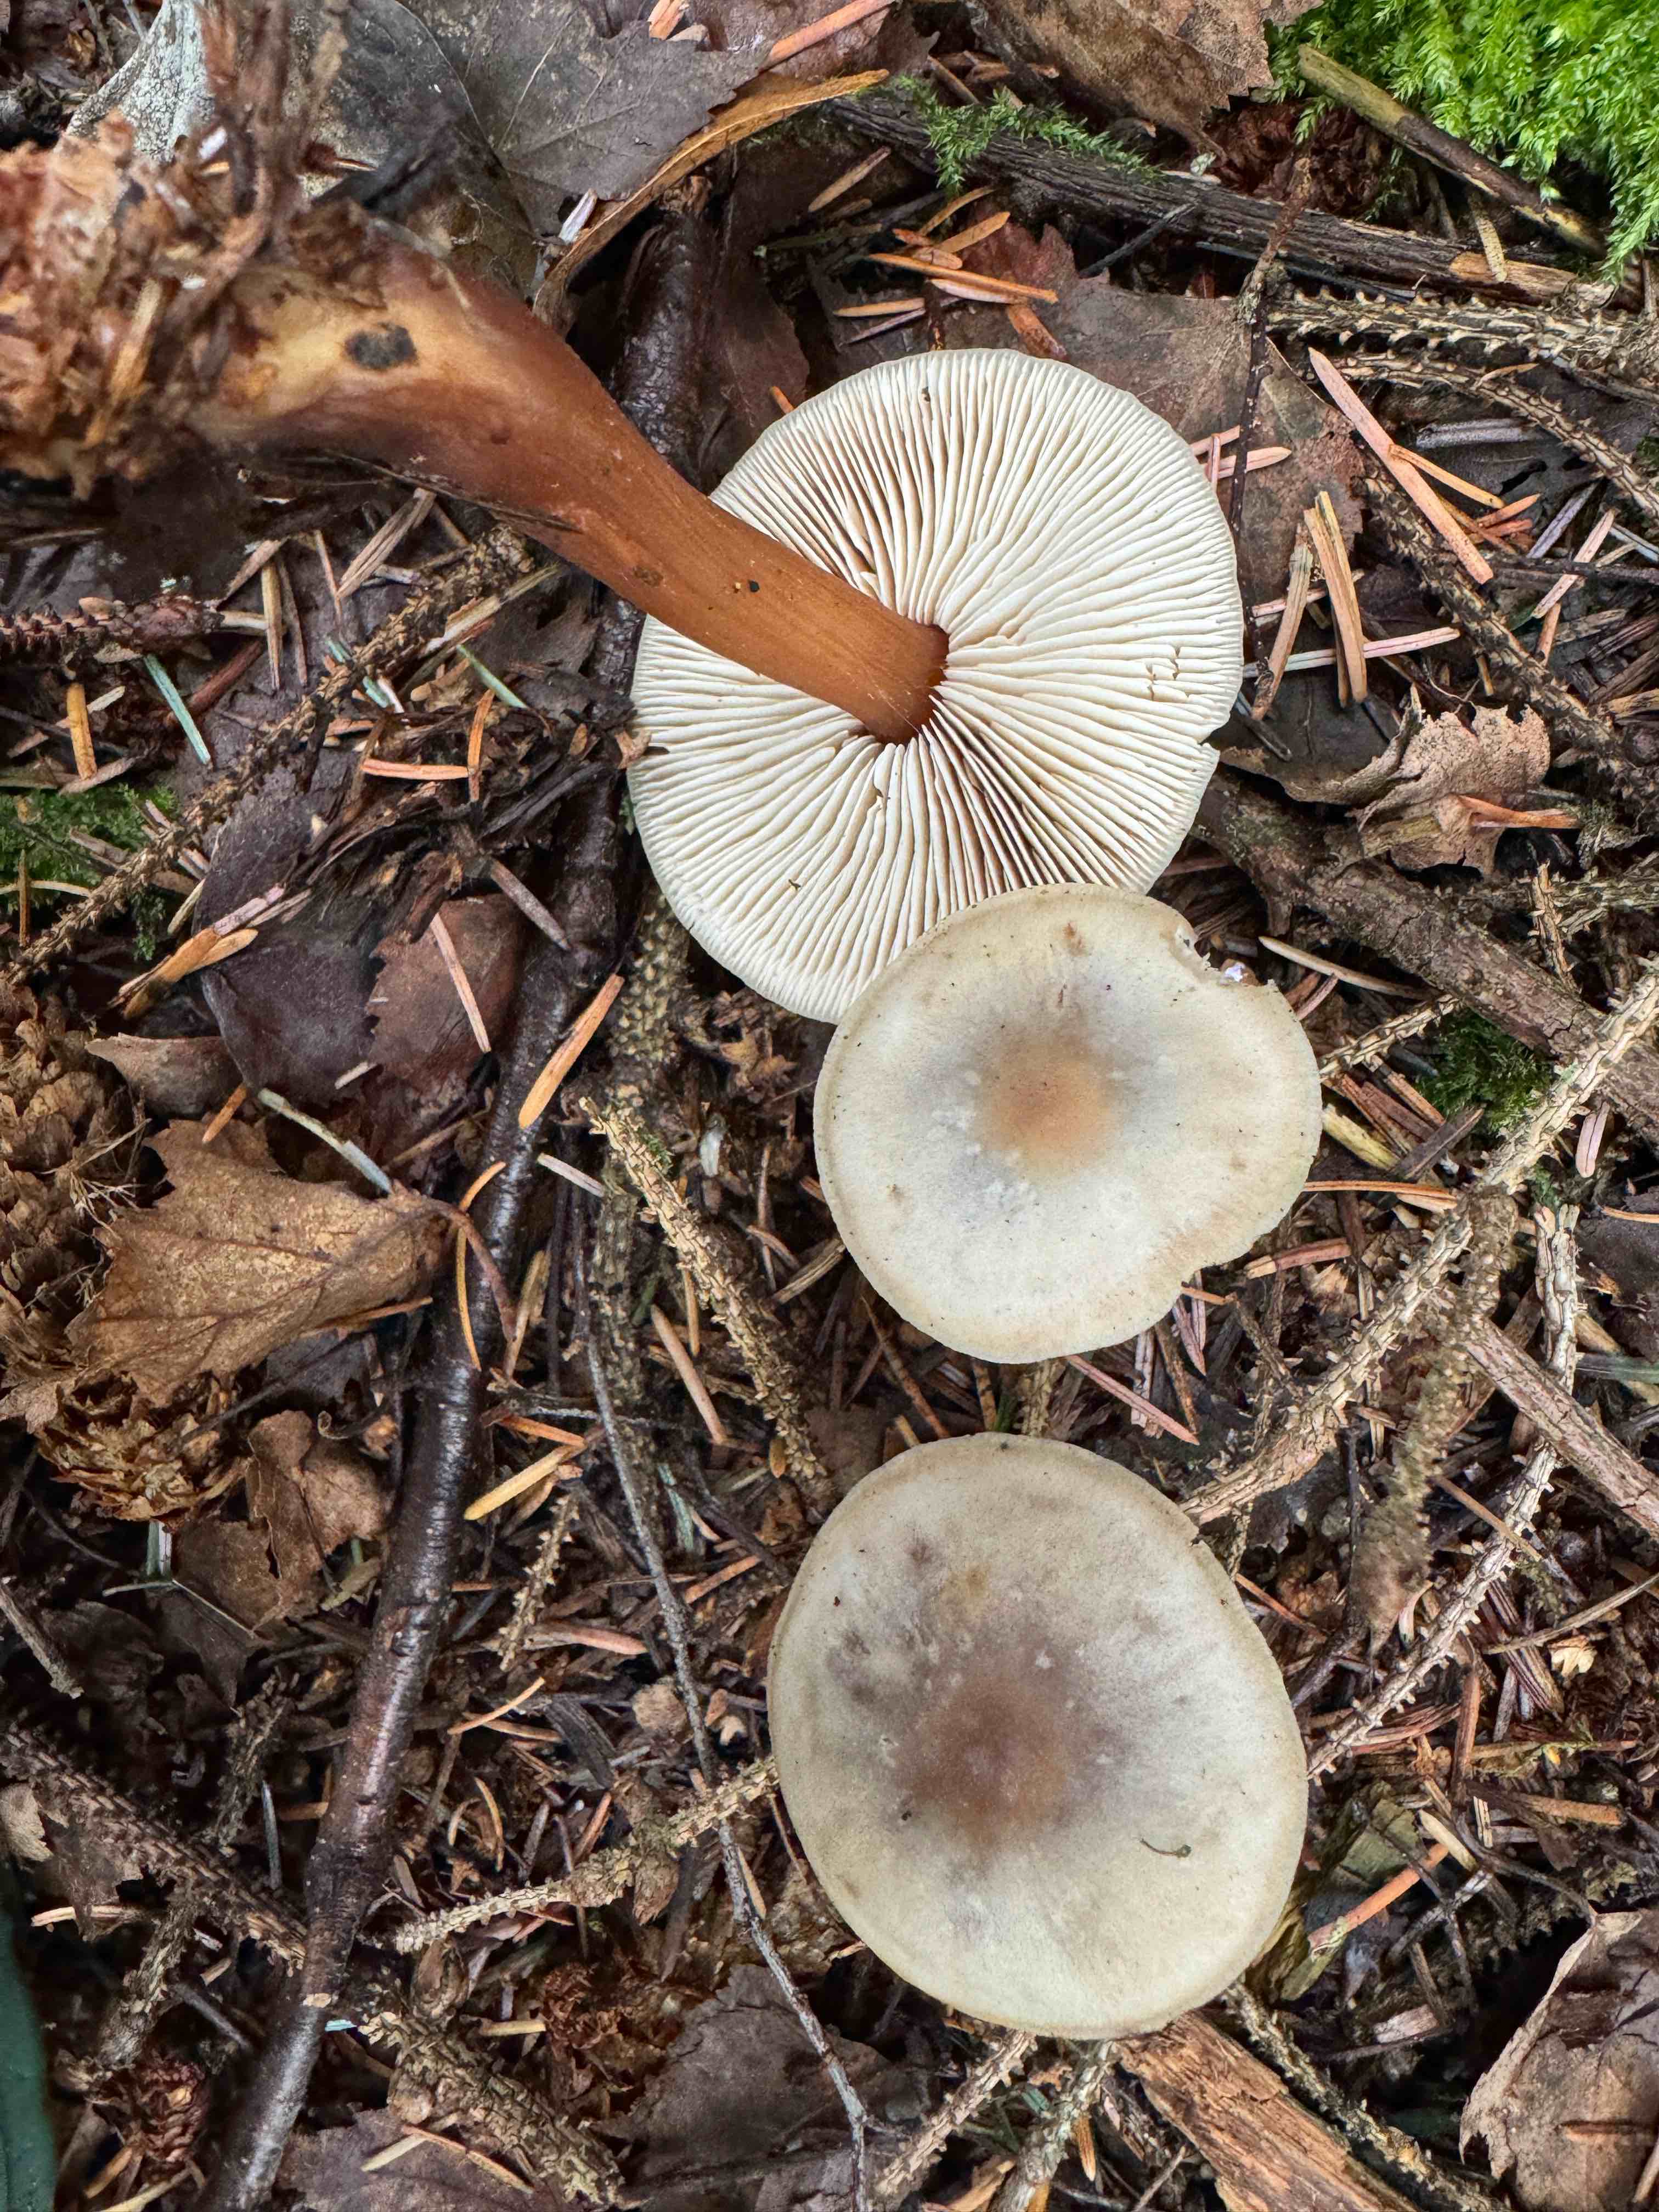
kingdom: Fungi
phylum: Basidiomycota
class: Agaricomycetes
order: Agaricales
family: Omphalotaceae
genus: Rhodocollybia
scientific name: Rhodocollybia asema
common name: horngrå fladhat
